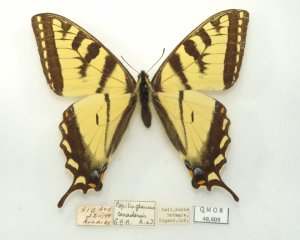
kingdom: Animalia
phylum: Arthropoda
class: Insecta
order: Lepidoptera
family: Papilionidae
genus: Pterourus
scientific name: Pterourus canadensis
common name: Canadian Tiger Swallowtail
